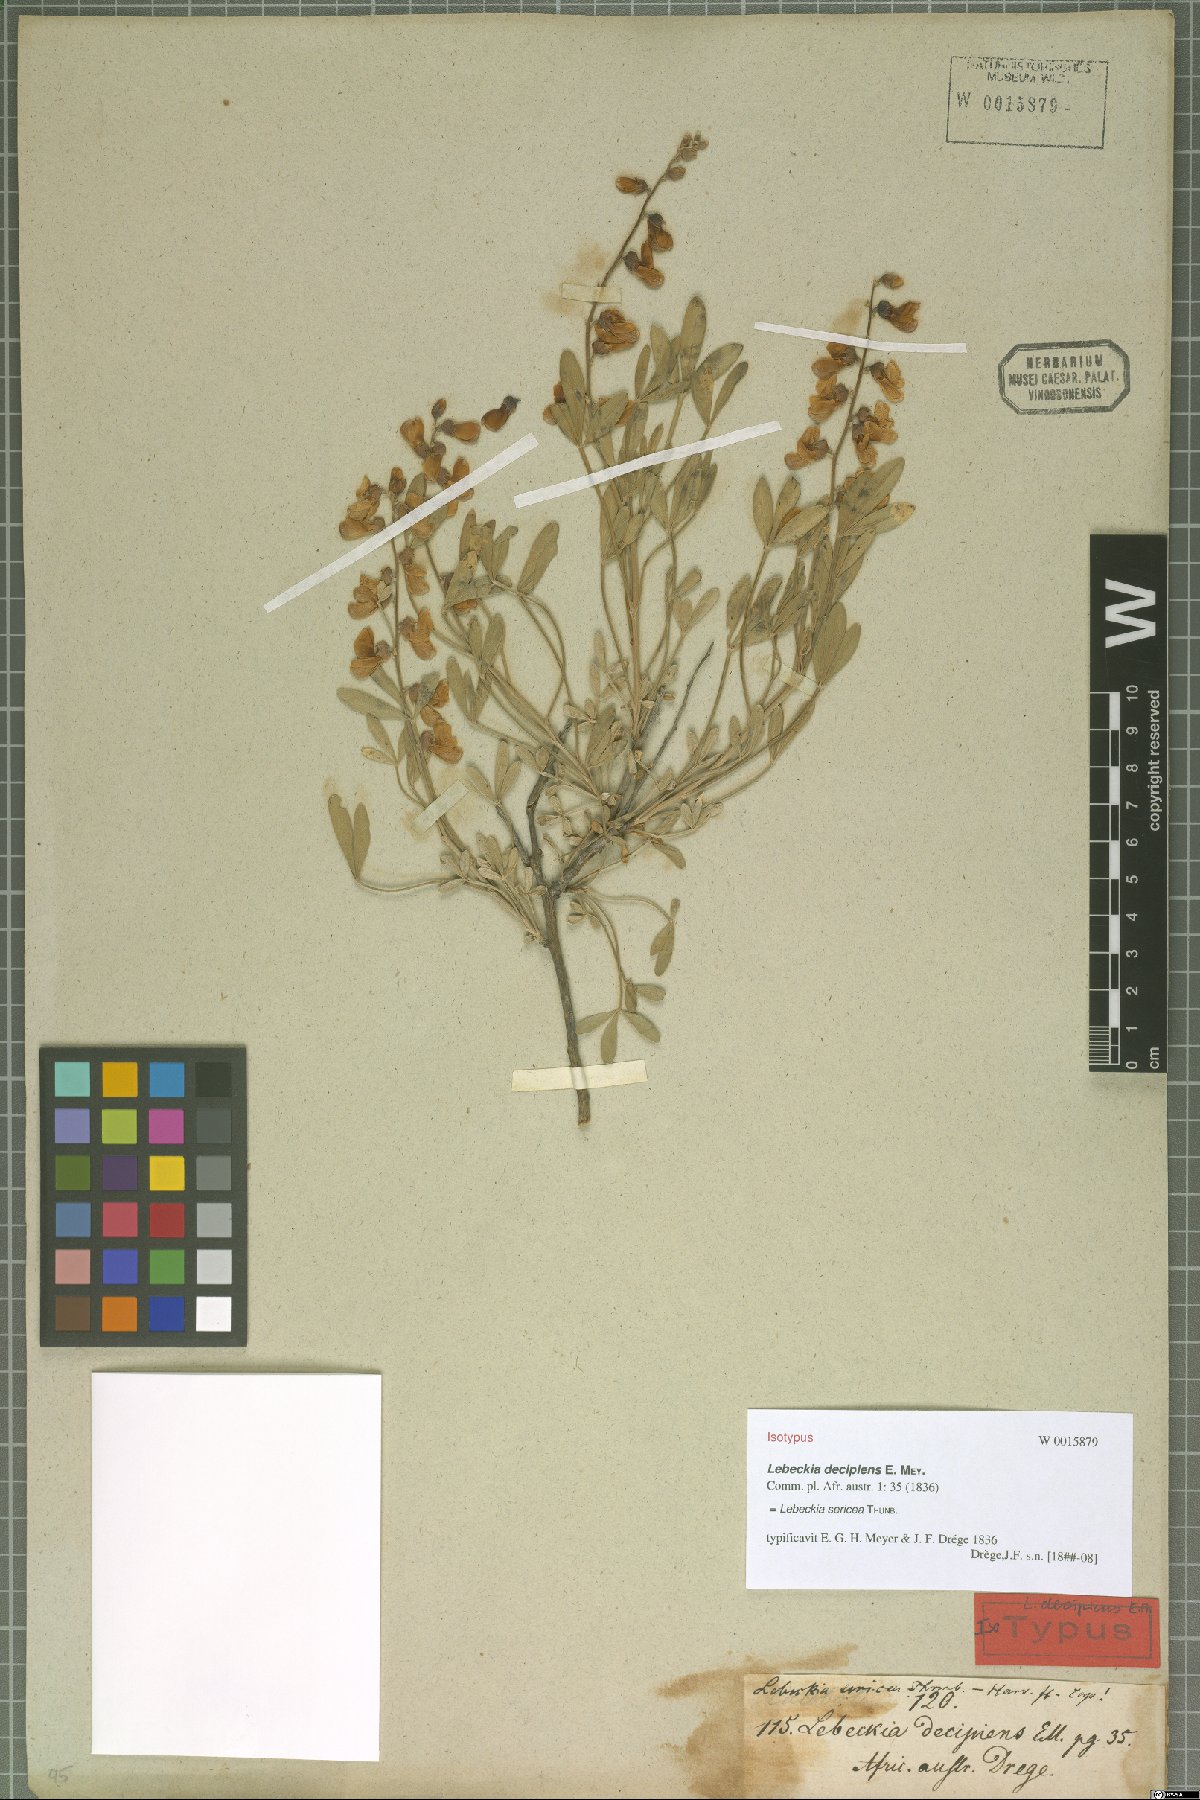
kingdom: Plantae
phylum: Tracheophyta
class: Magnoliopsida
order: Fabales
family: Fabaceae
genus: Calobota
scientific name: Calobota sericea
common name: Silver-pea
